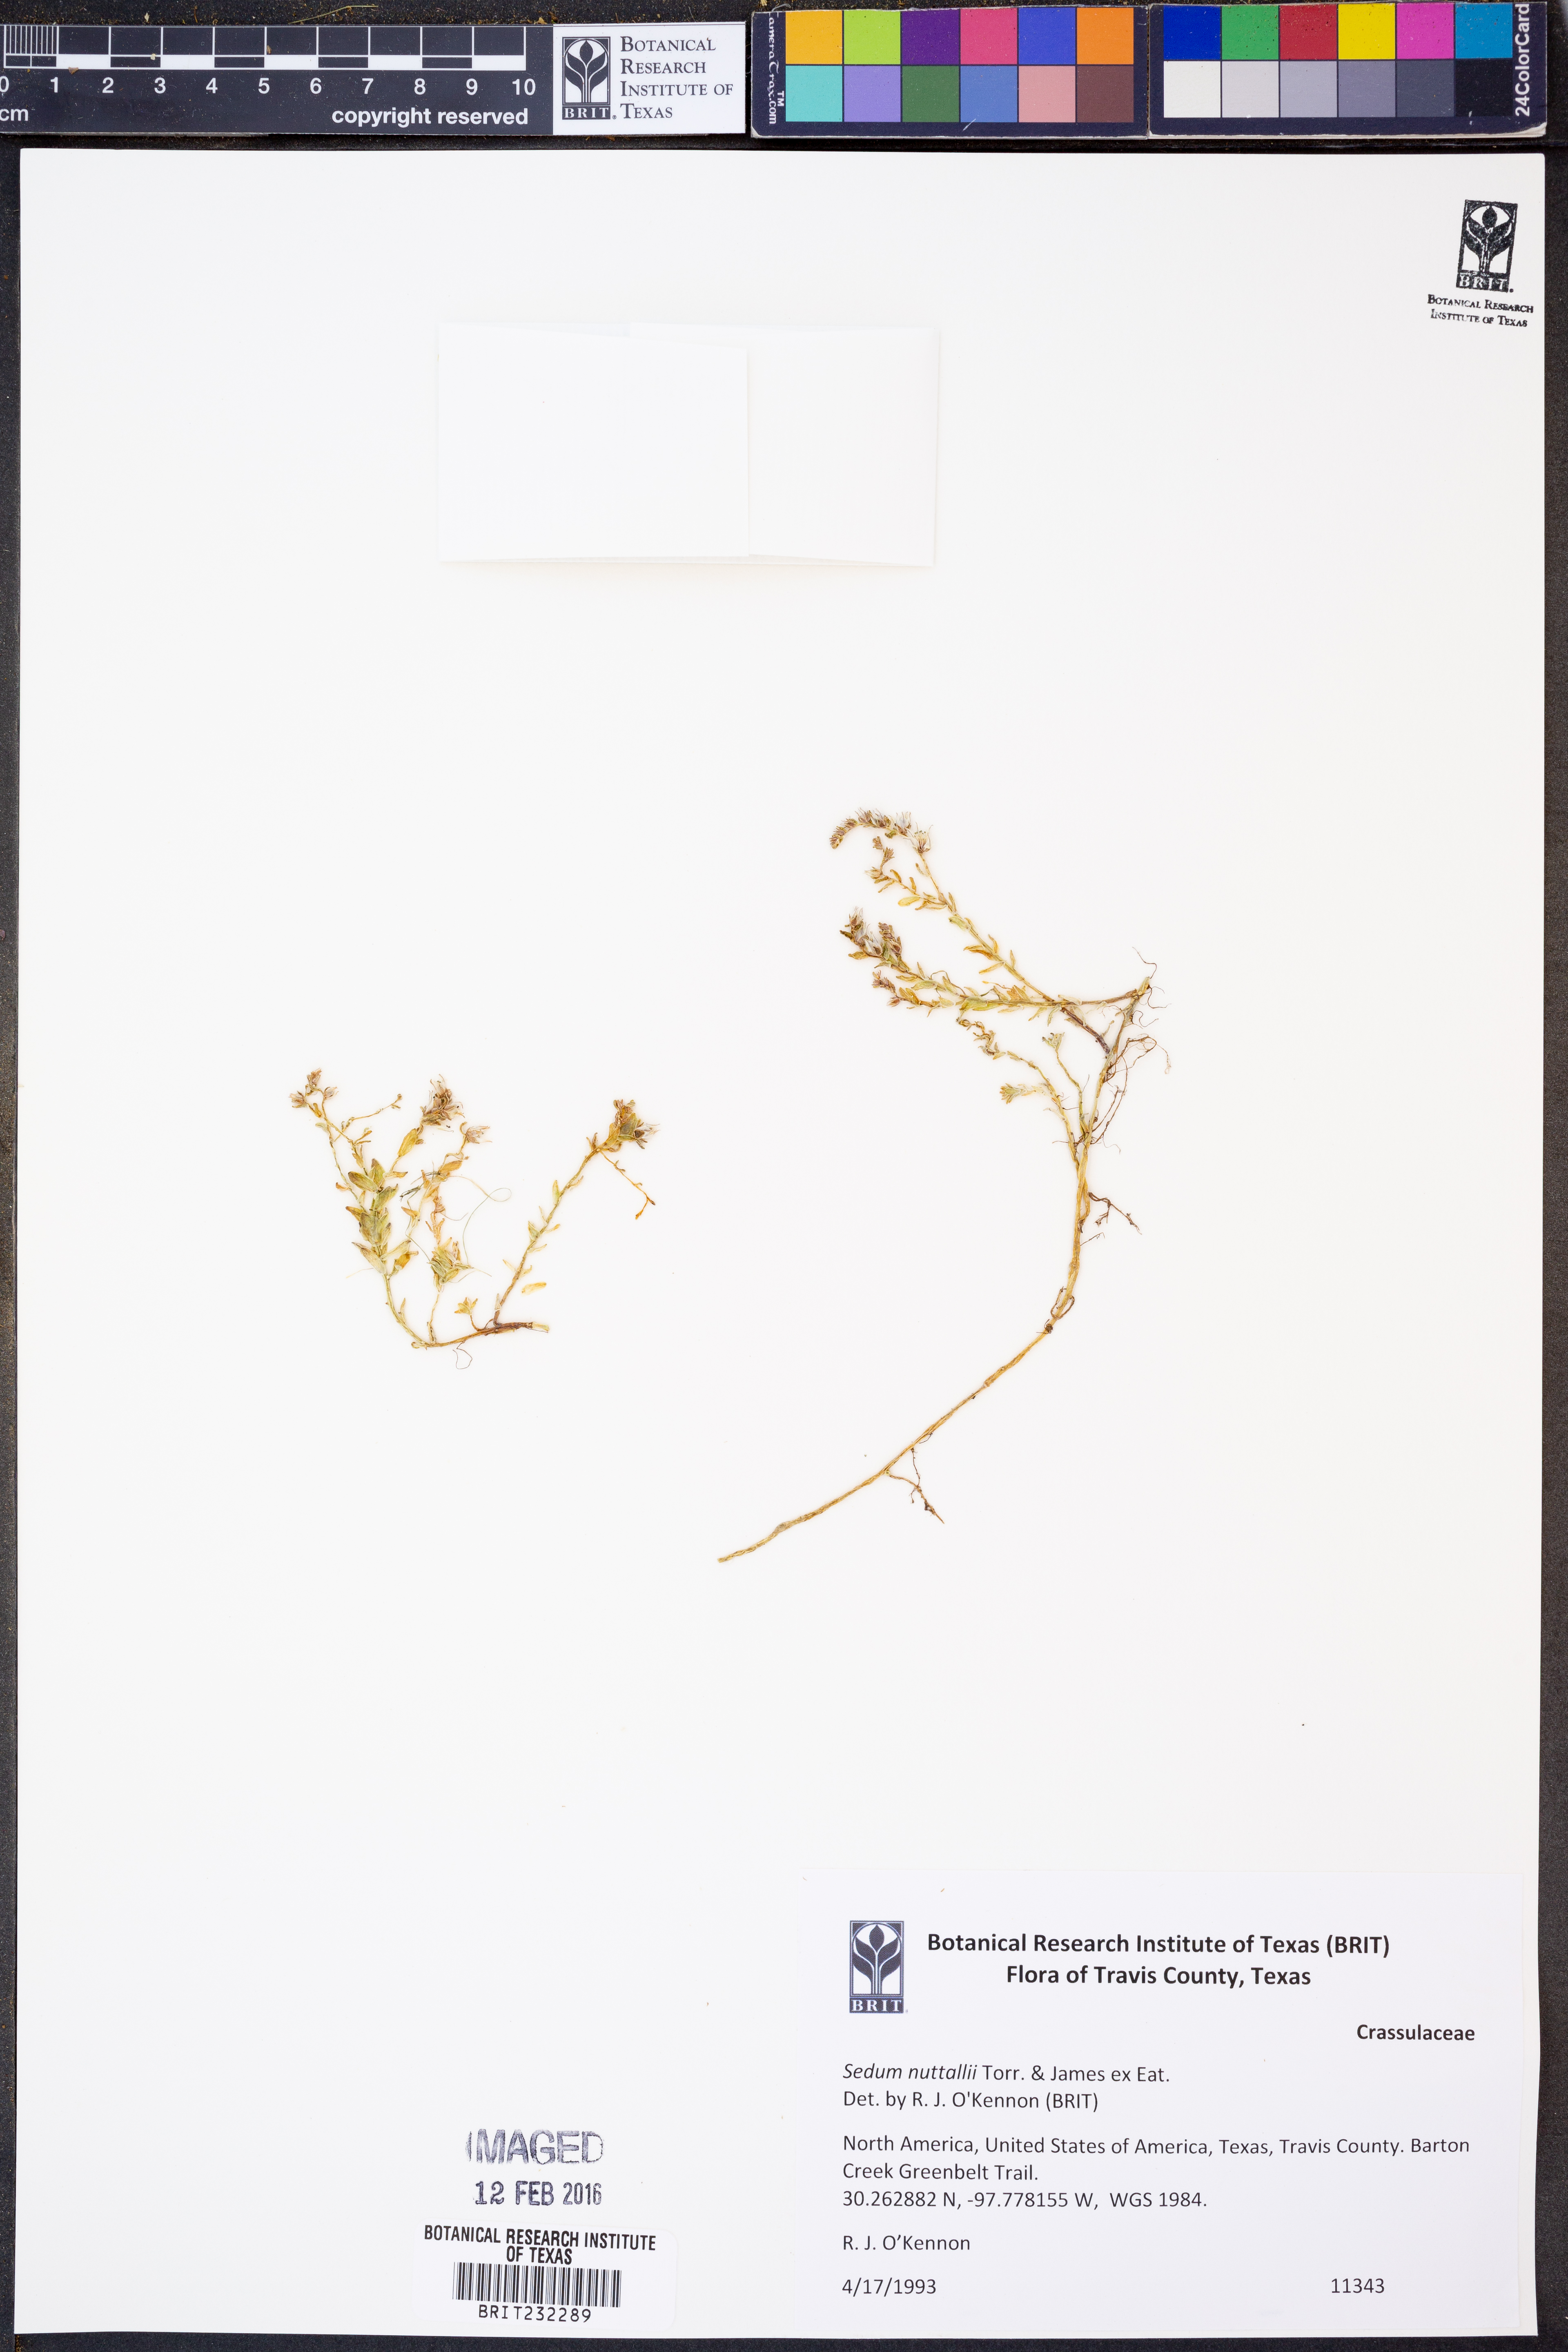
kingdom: Plantae
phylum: Tracheophyta
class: Magnoliopsida
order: Saxifragales
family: Crassulaceae
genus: Sedum
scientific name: Sedum nuttallii
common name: Yellow stonecrop
